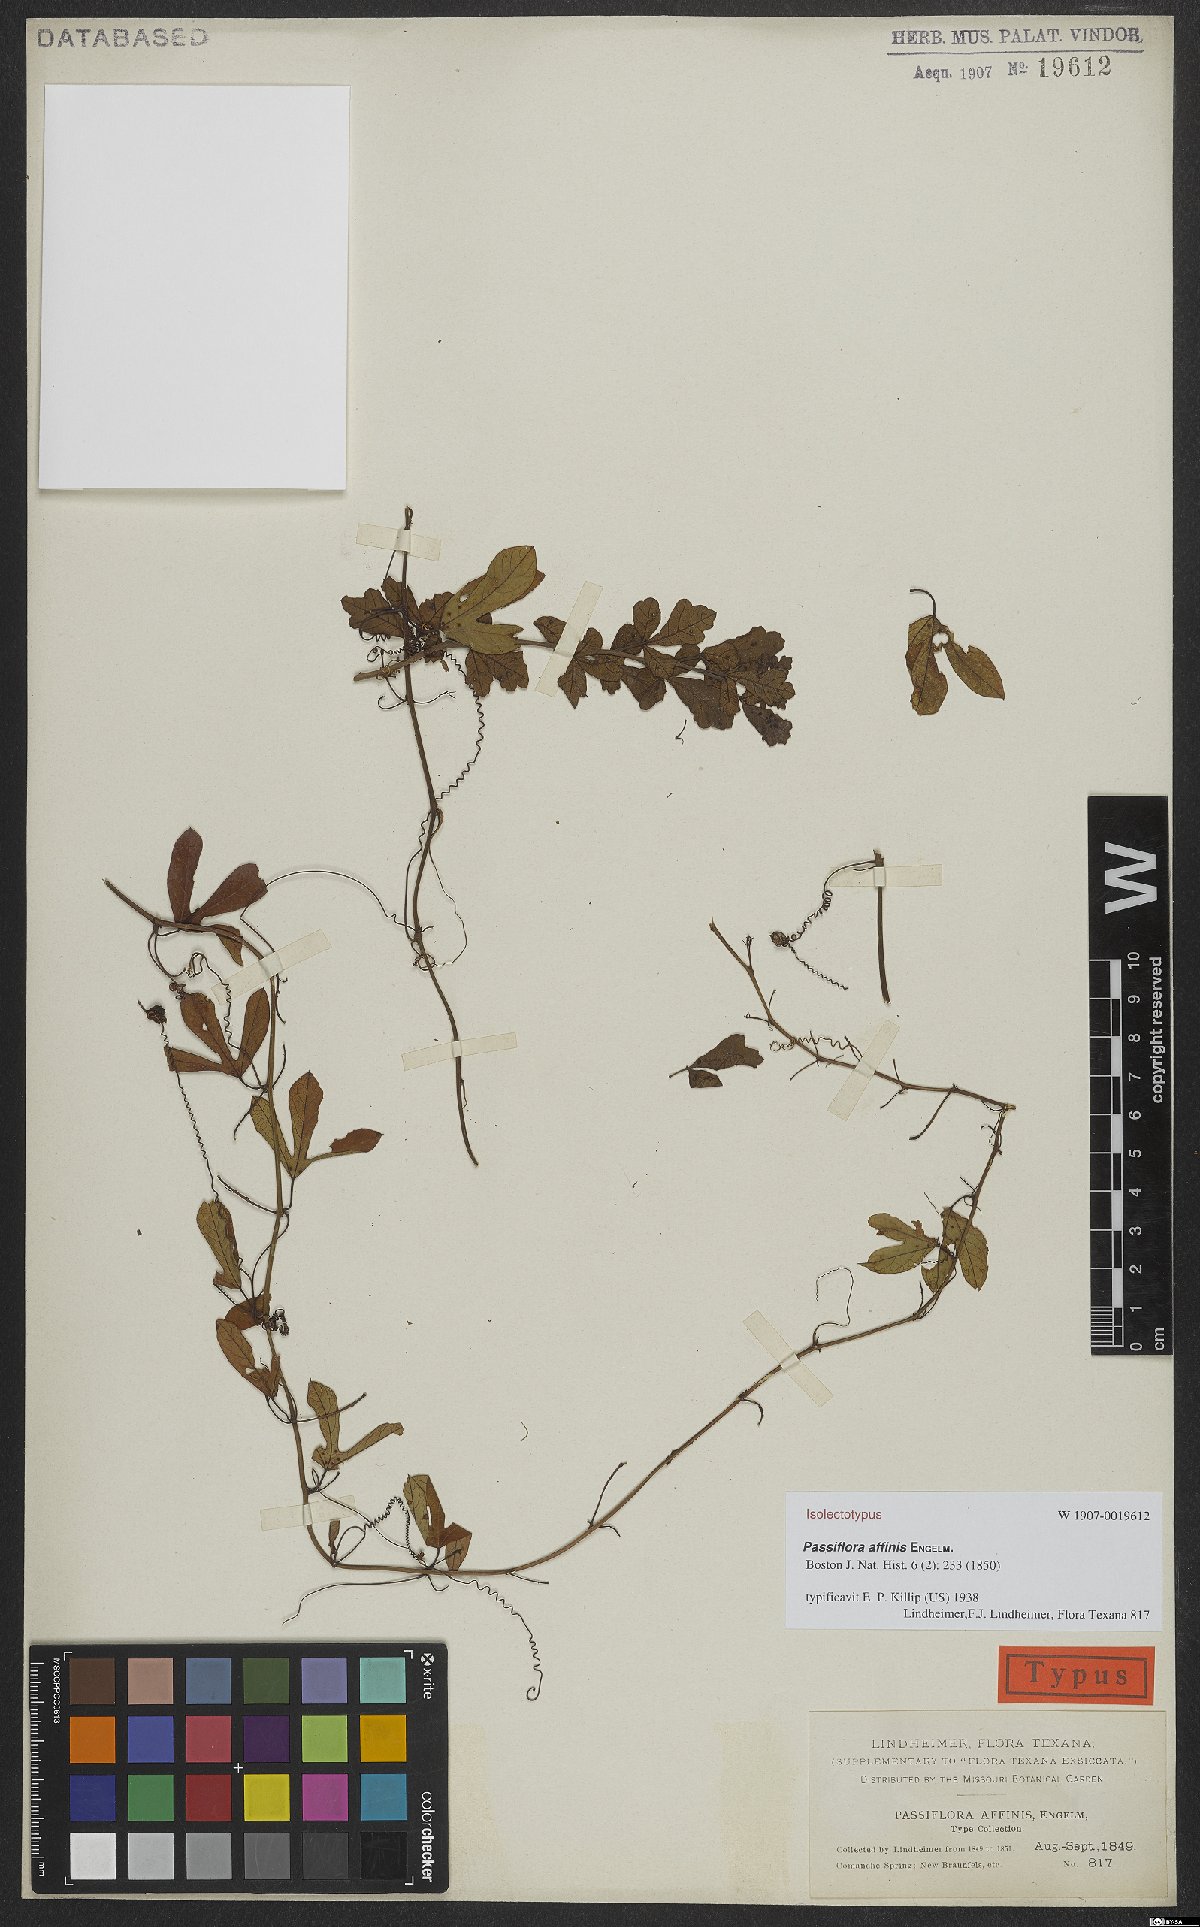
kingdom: Plantae
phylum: Tracheophyta
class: Magnoliopsida
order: Malpighiales
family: Passifloraceae
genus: Passiflora
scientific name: Passiflora affinis
